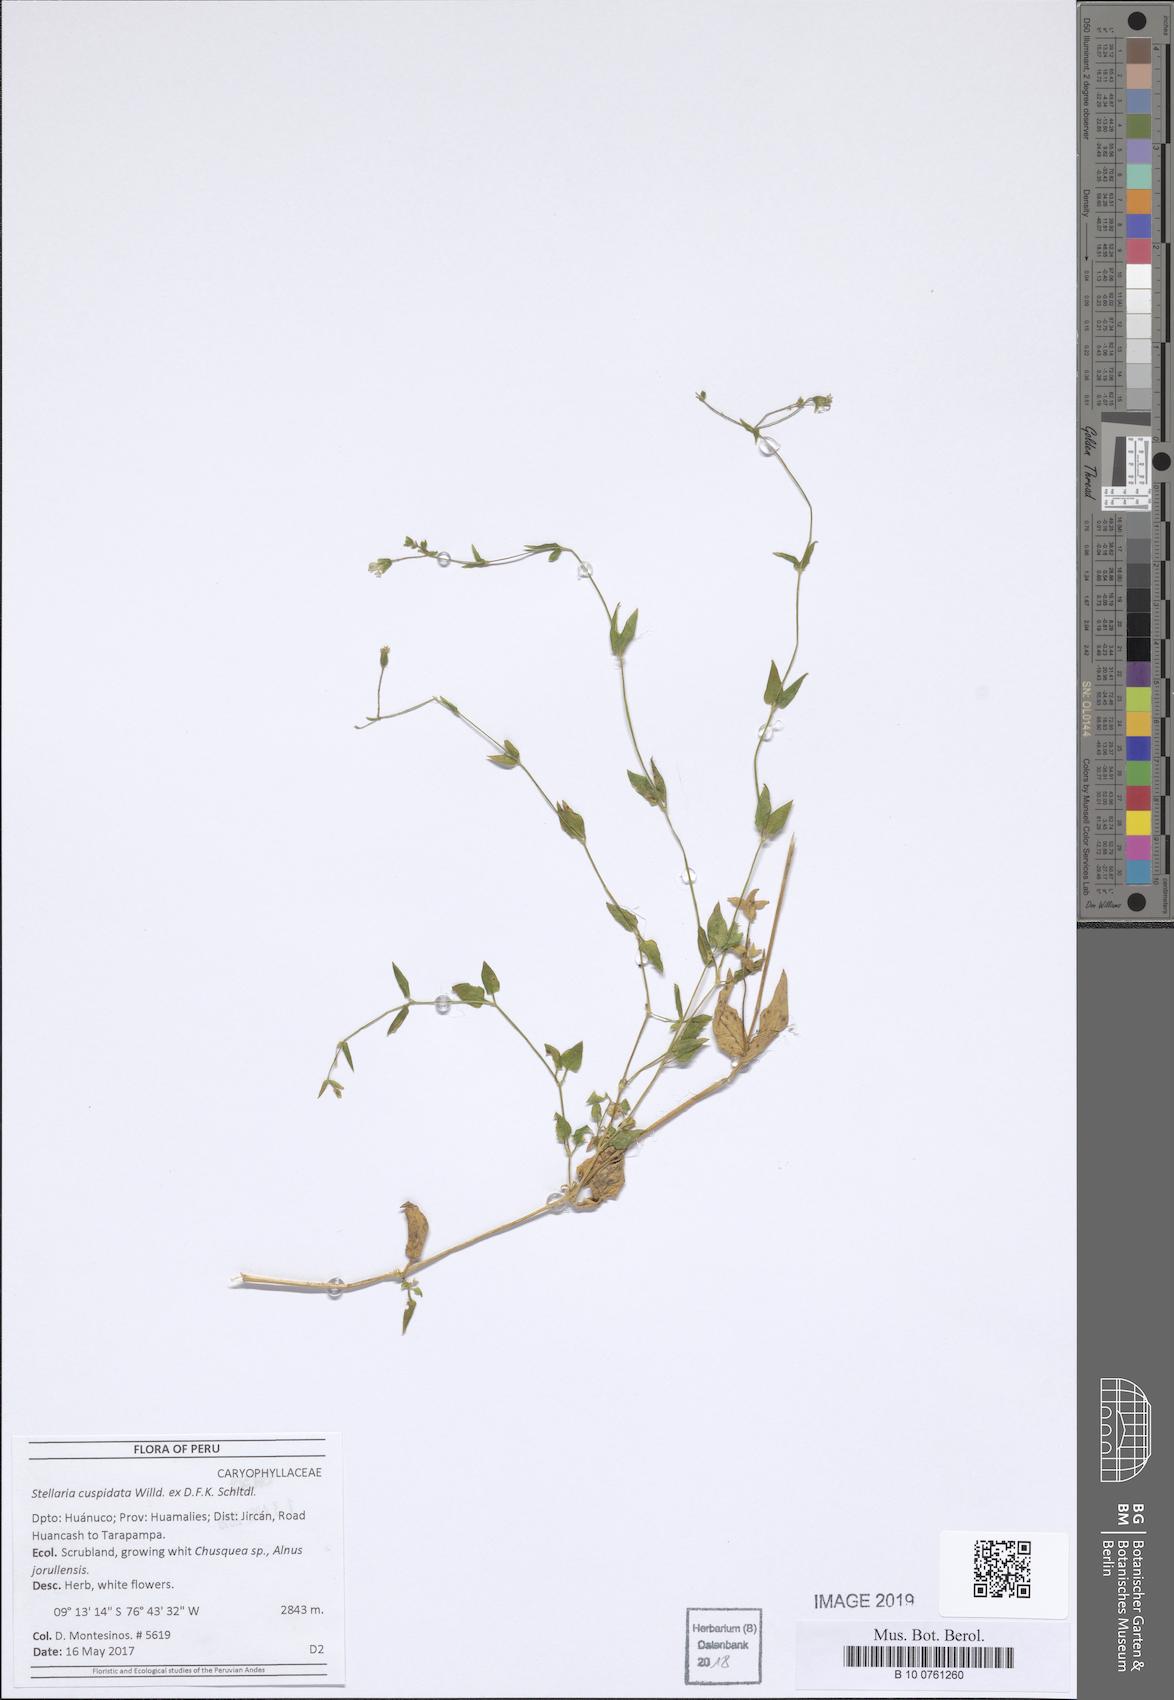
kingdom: Plantae
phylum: Tracheophyta
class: Magnoliopsida
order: Caryophyllales
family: Caryophyllaceae
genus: Stellaria
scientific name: Stellaria cuspidata
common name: Mexican chickweed
